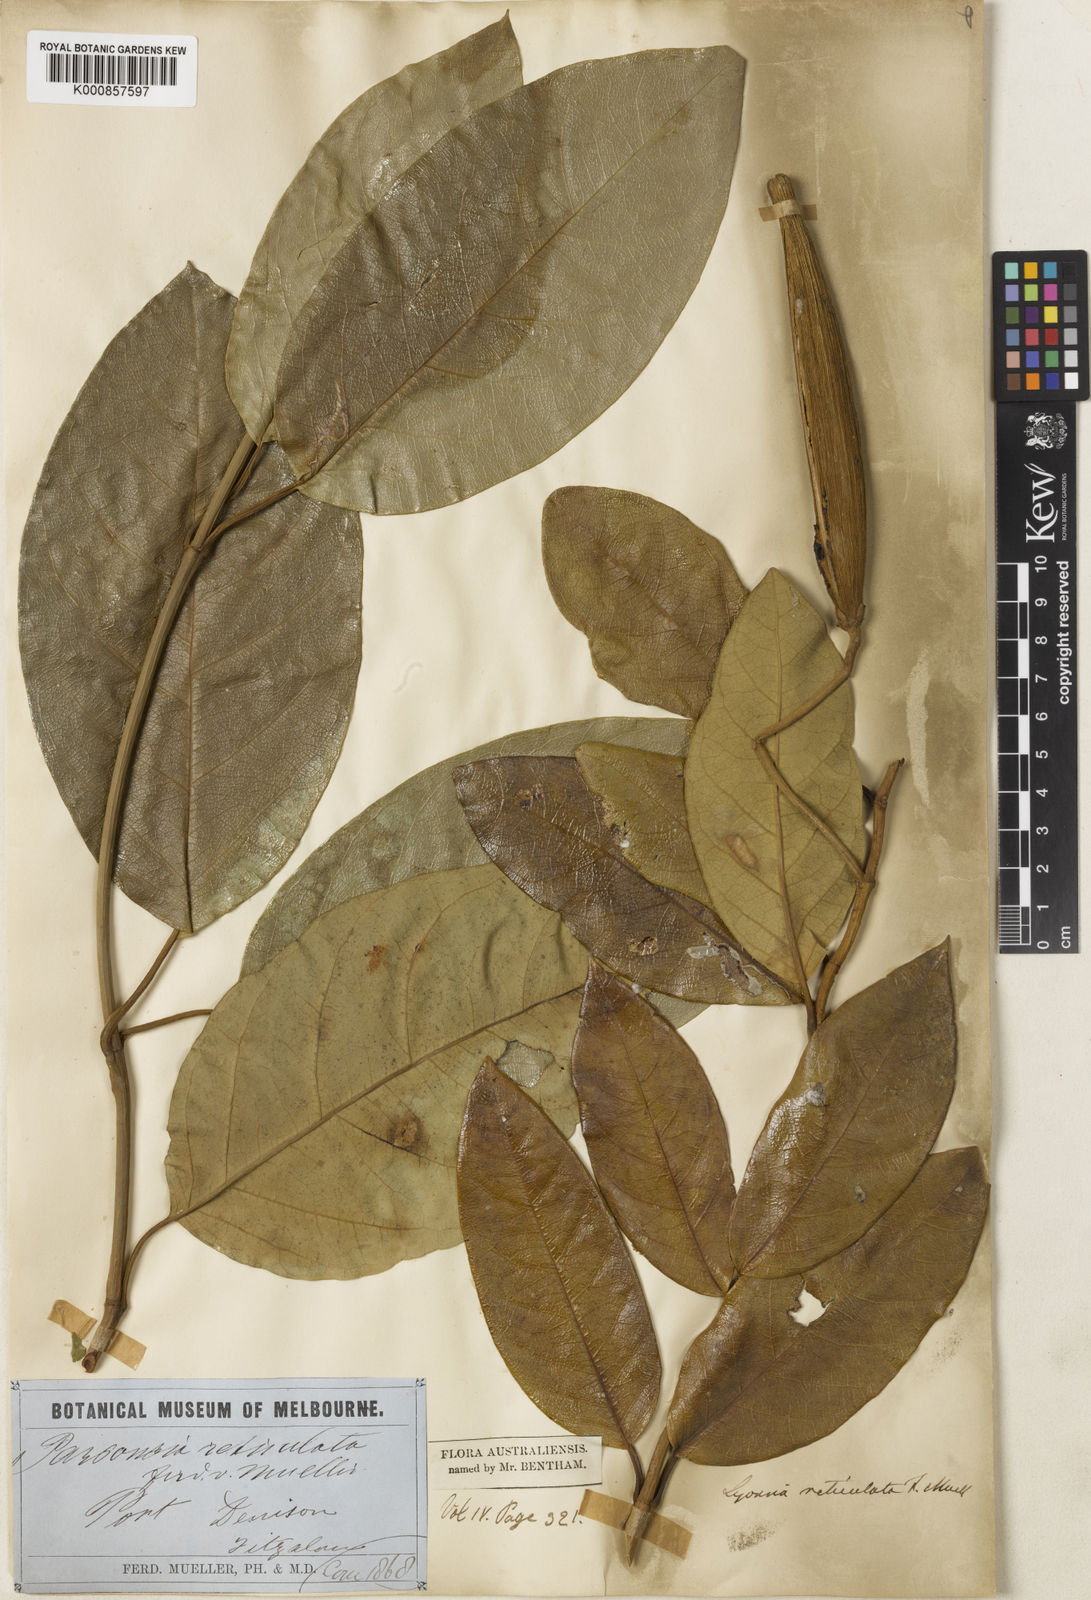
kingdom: Plantae
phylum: Tracheophyta
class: Magnoliopsida
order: Gentianales
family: Apocynaceae
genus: Parsonsia
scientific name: Parsonsia straminea
